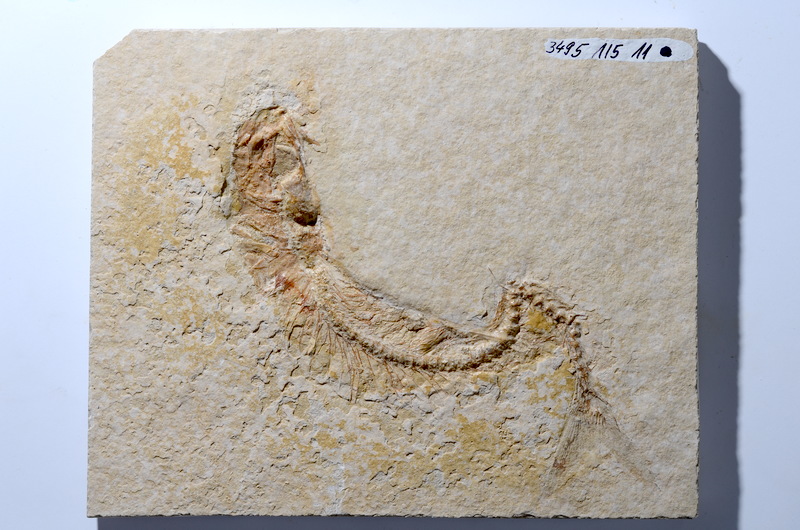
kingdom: Animalia
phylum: Chordata
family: Ascalaboidae
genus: Tharsis
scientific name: Tharsis dubius
